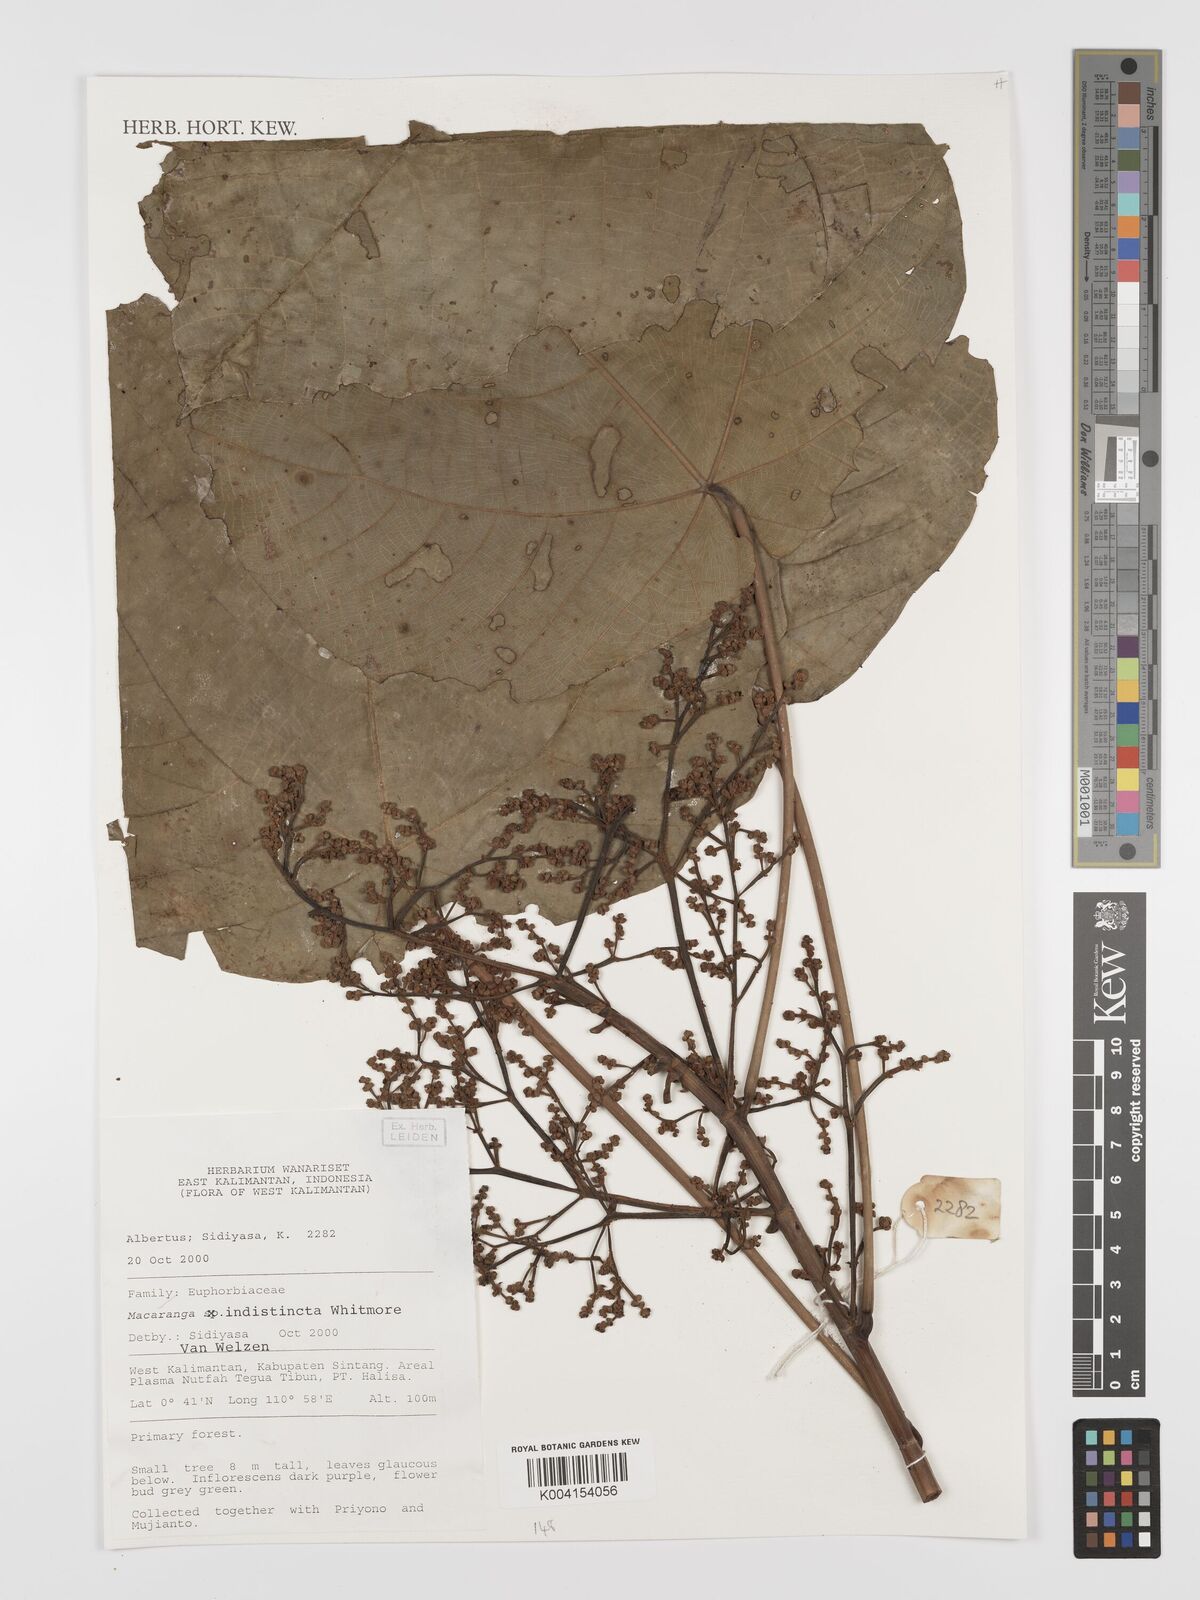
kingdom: Plantae
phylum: Tracheophyta
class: Magnoliopsida
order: Malpighiales
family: Euphorbiaceae
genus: Macaranga
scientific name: Macaranga indistincta
